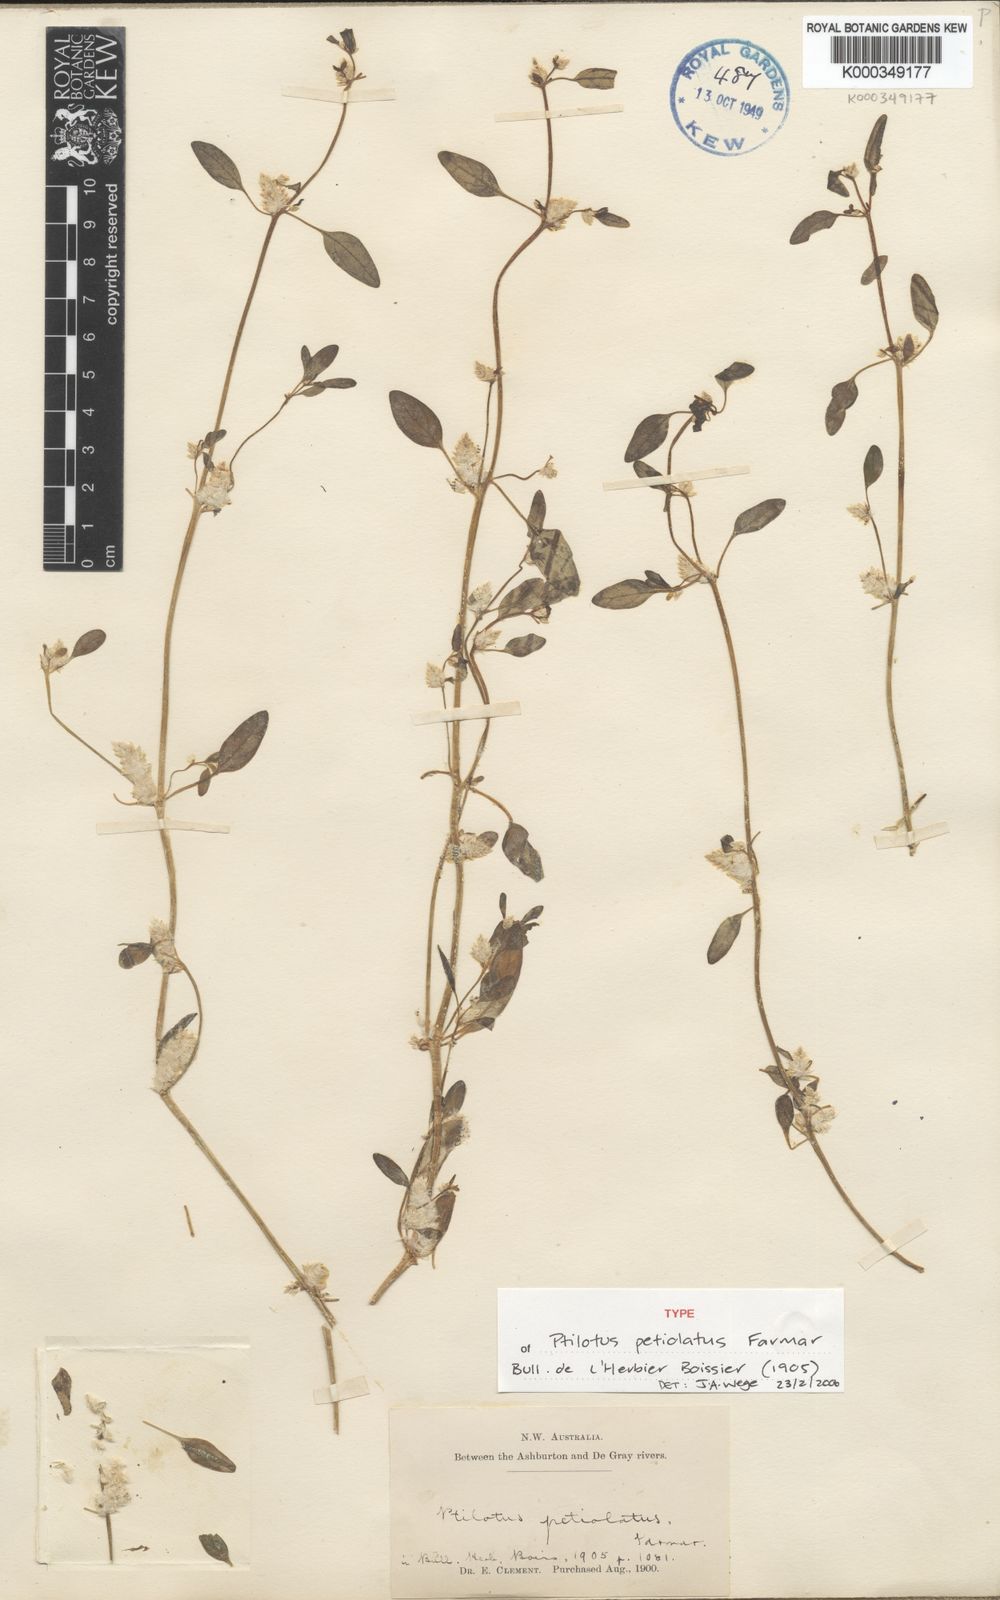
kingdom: Plantae
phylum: Tracheophyta
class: Magnoliopsida
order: Caryophyllales
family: Amaranthaceae
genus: Ptilotus
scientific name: Ptilotus murrayi
